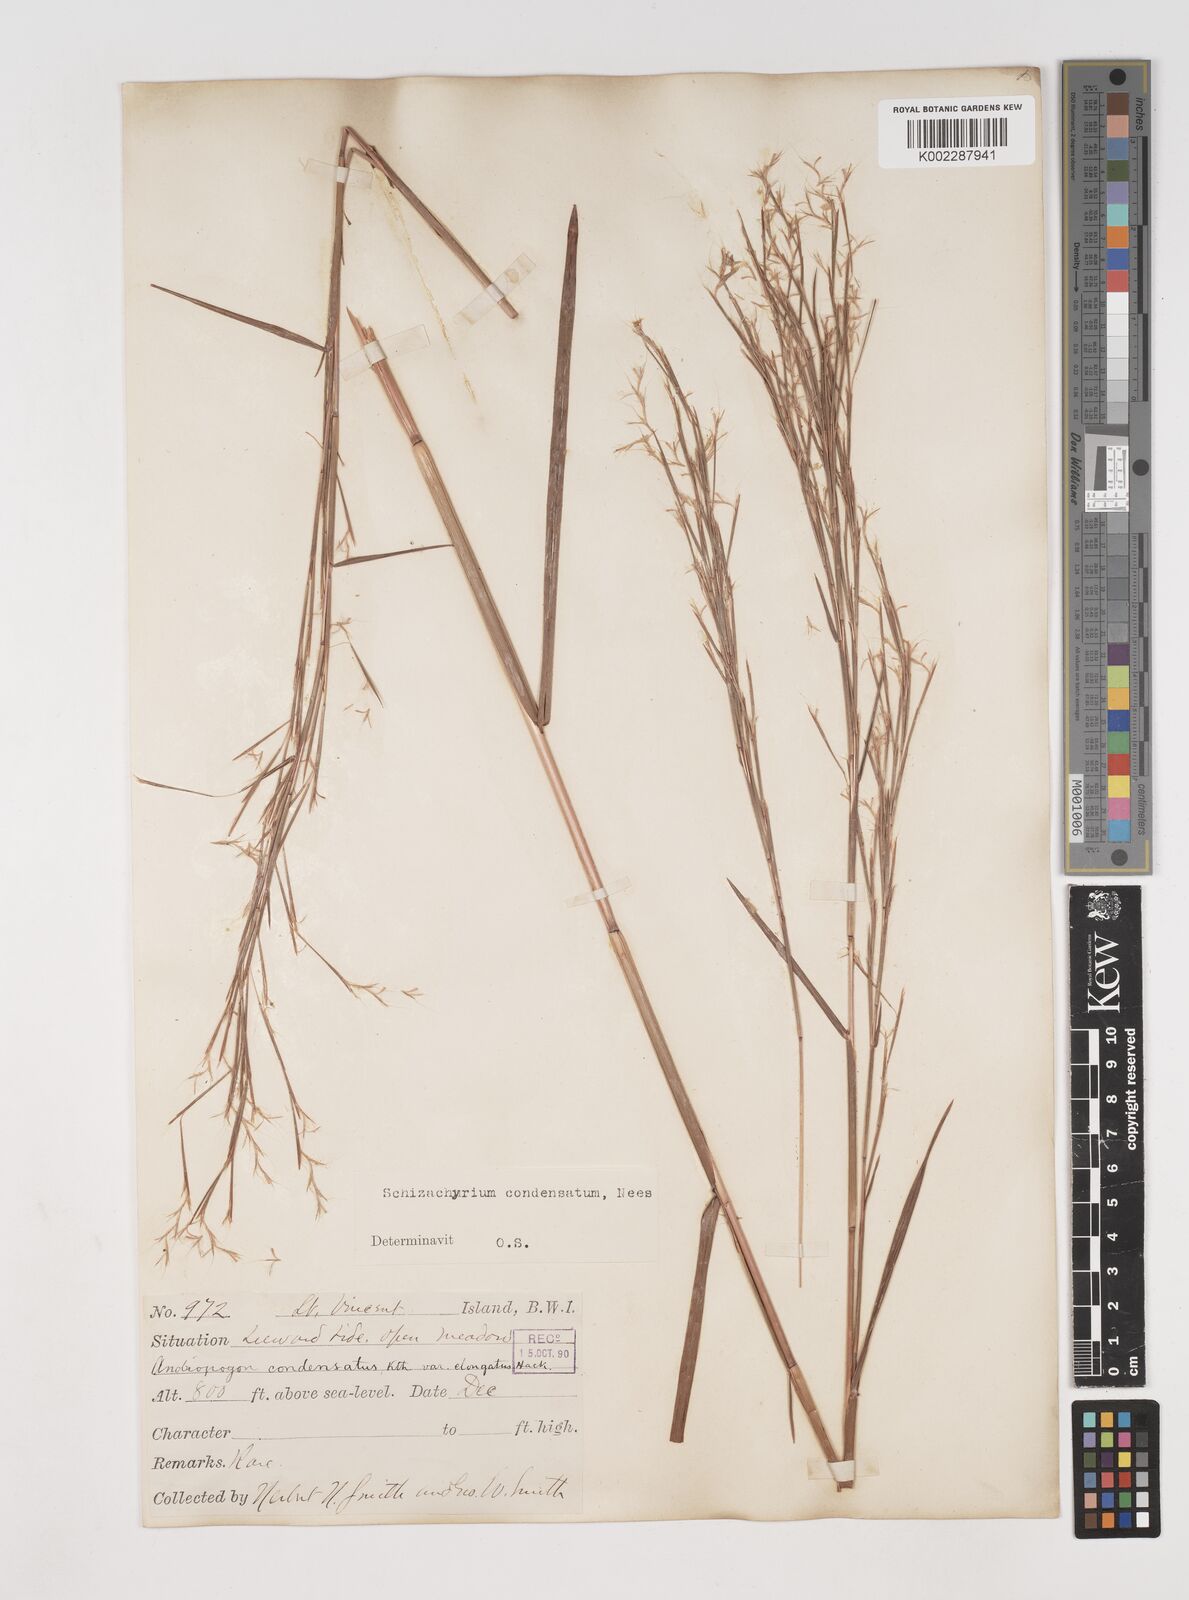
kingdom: Plantae
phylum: Tracheophyta
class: Liliopsida
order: Poales
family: Poaceae
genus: Schizachyrium
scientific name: Schizachyrium condensatum
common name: Bush beardgrass
